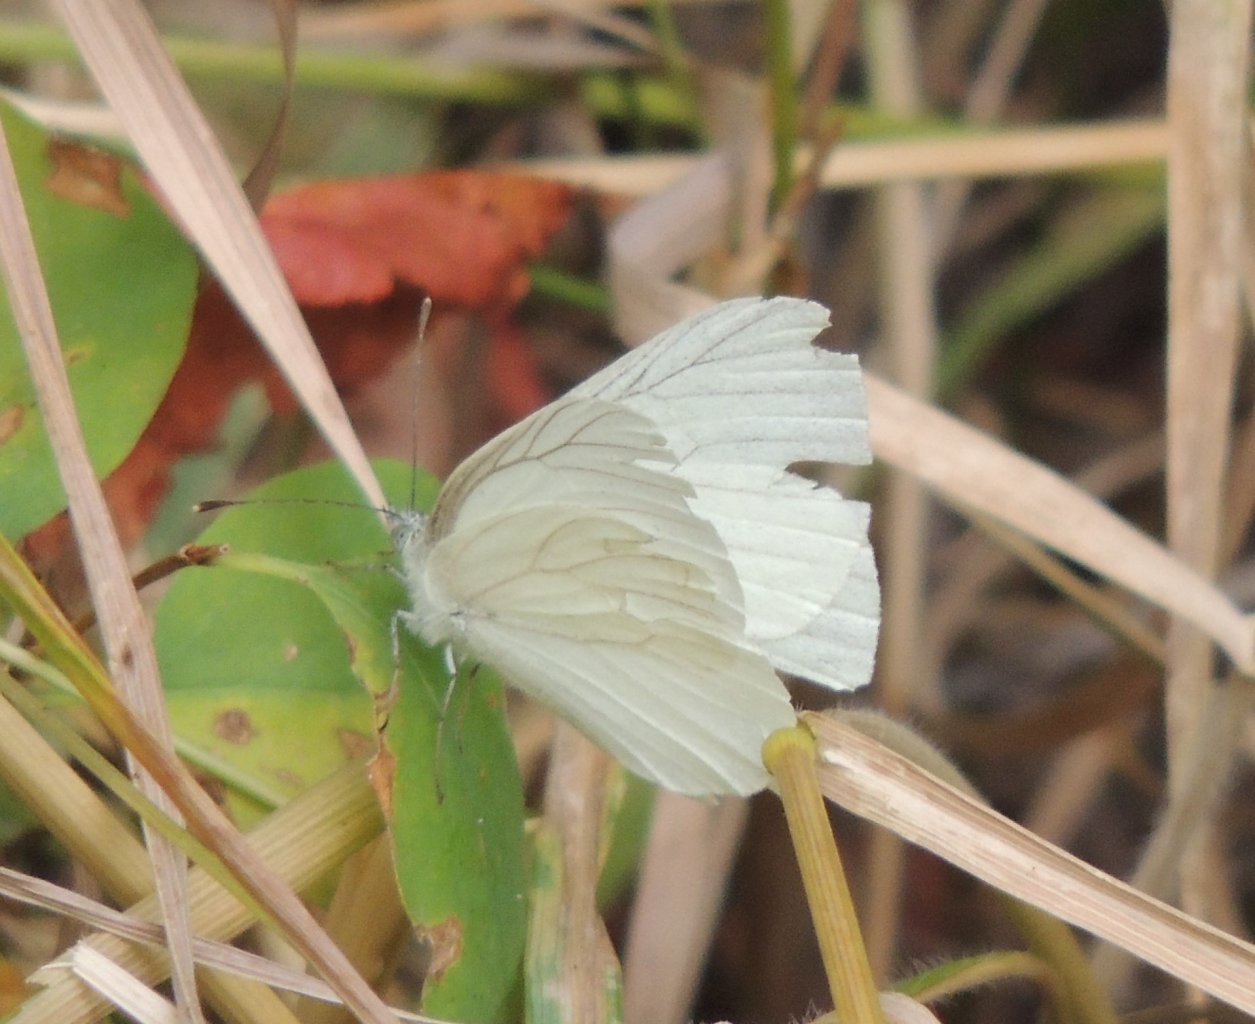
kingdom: Animalia
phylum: Arthropoda
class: Insecta
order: Lepidoptera
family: Pieridae
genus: Pieris
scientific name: Pieris marginalis
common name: Margined White
